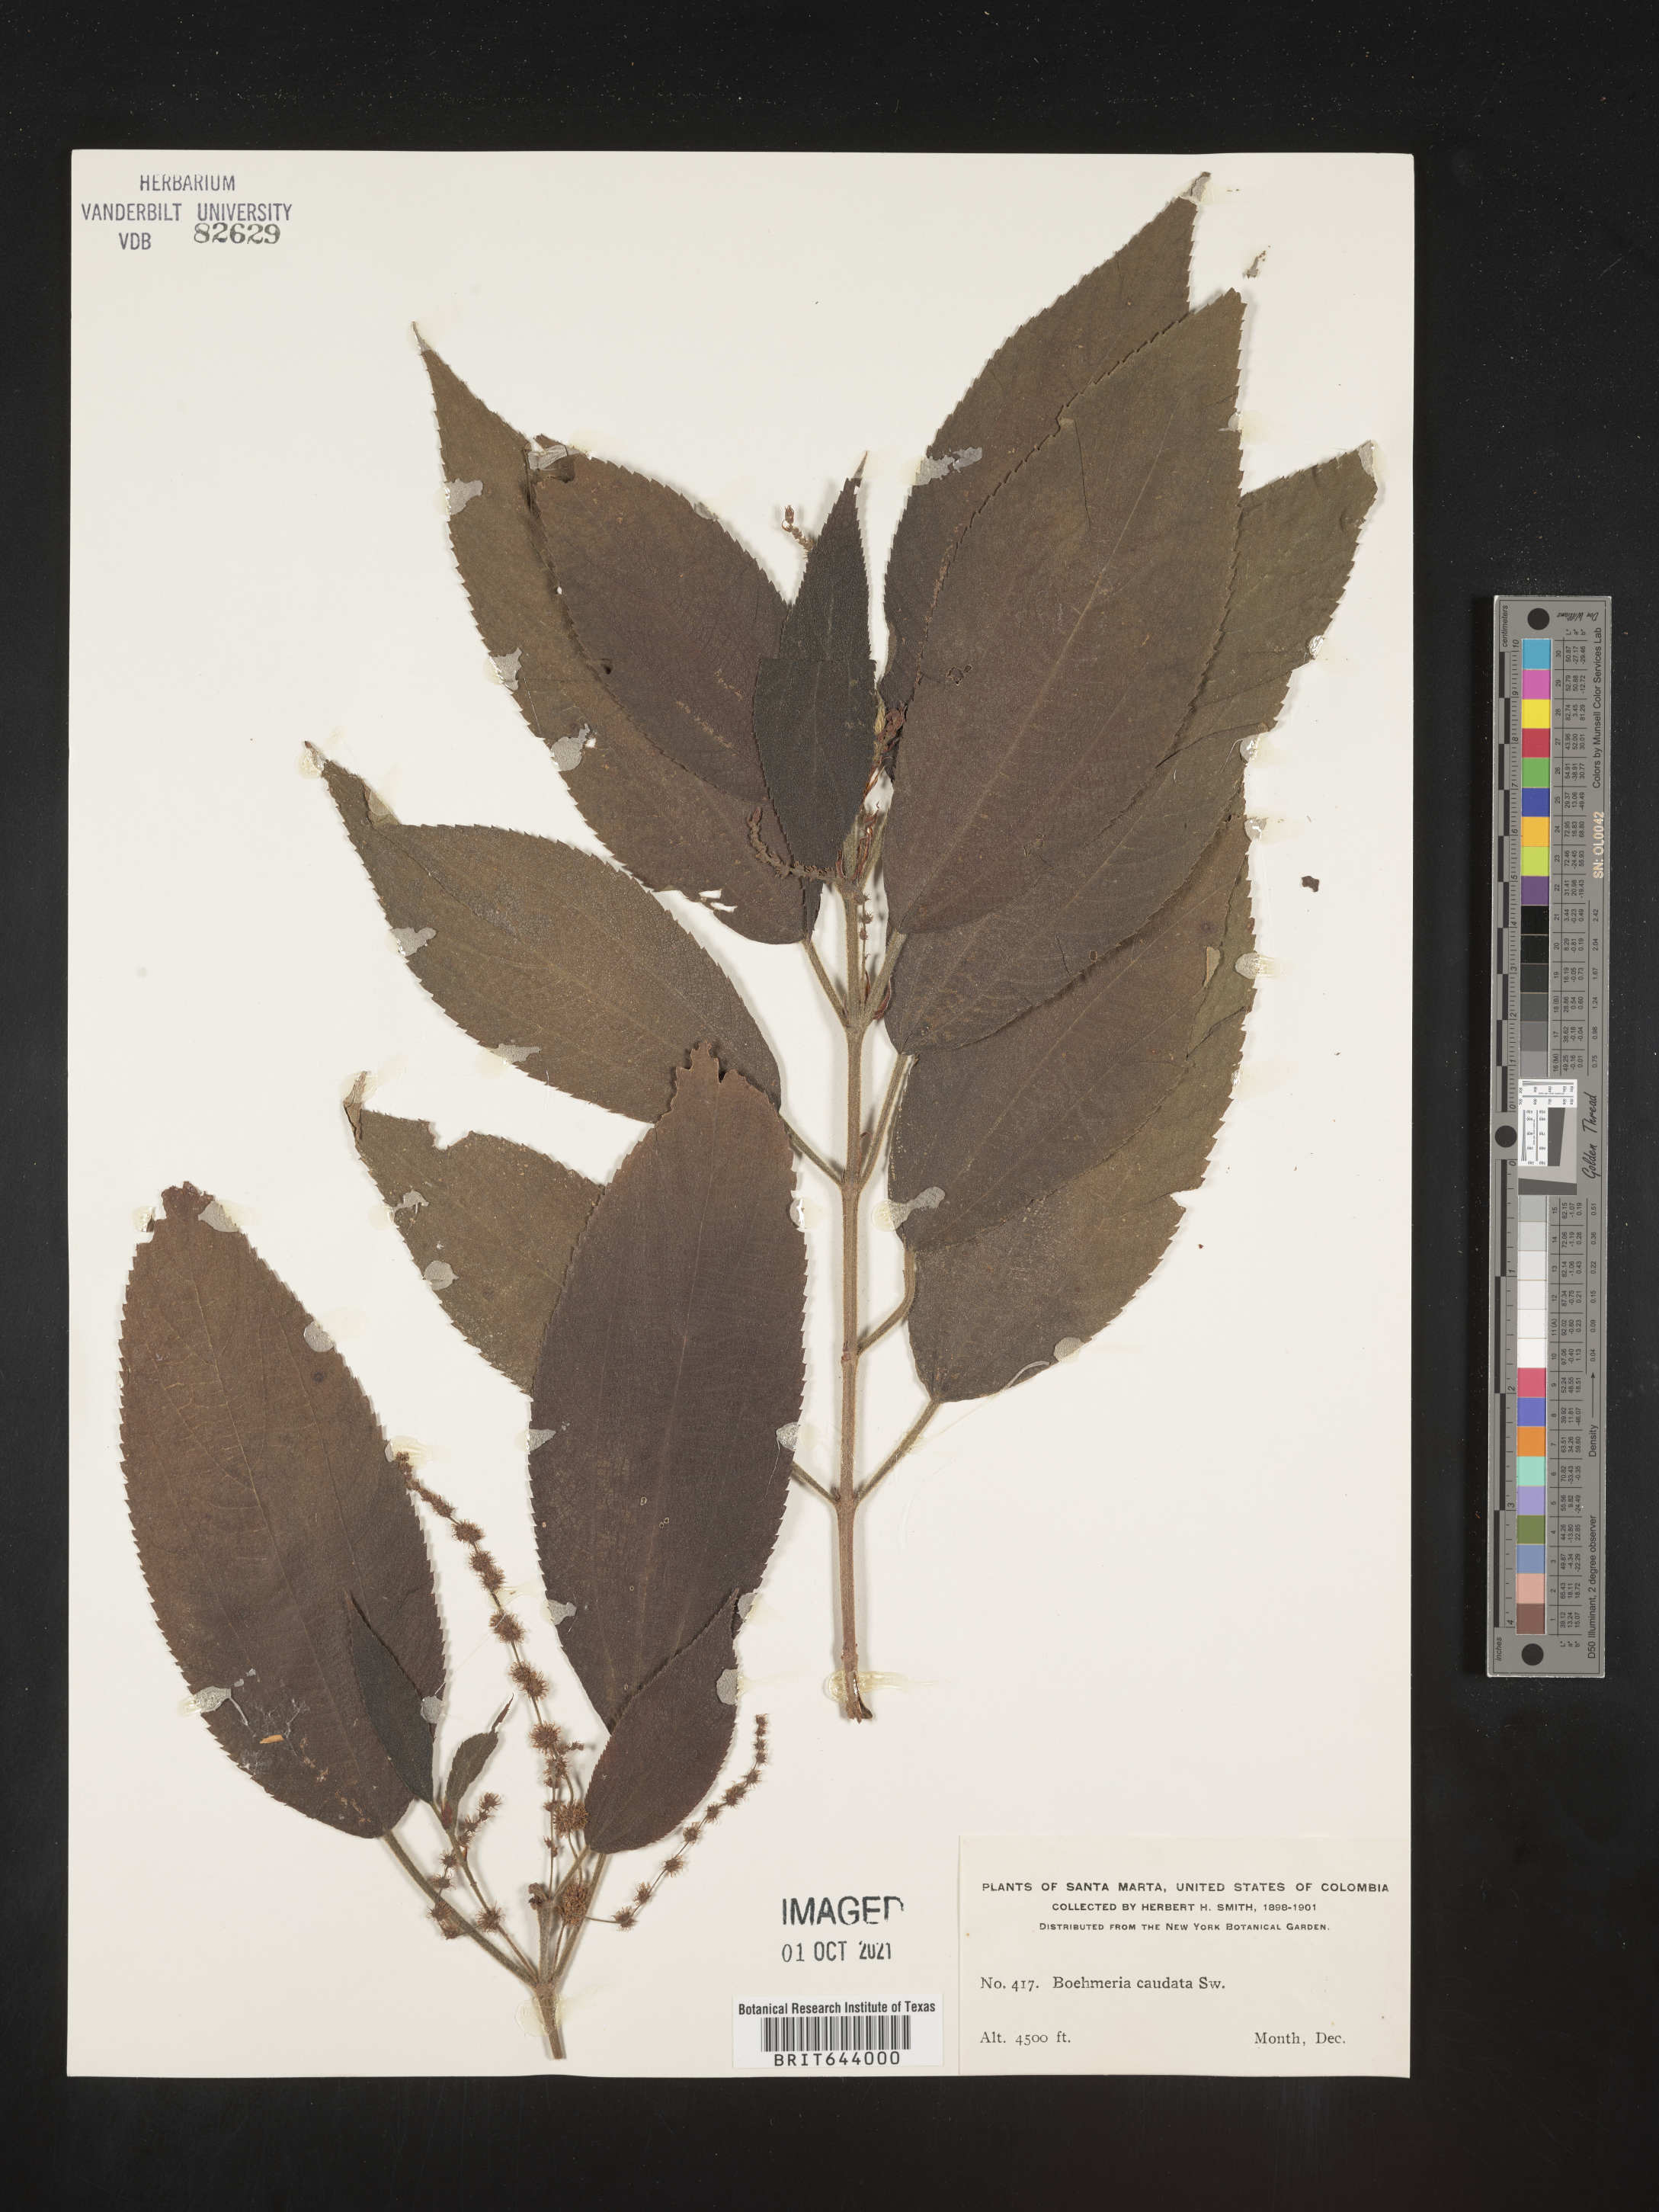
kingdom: Plantae
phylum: Tracheophyta
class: Magnoliopsida
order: Rosales
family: Urticaceae
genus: Boehmeria
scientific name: Boehmeria
